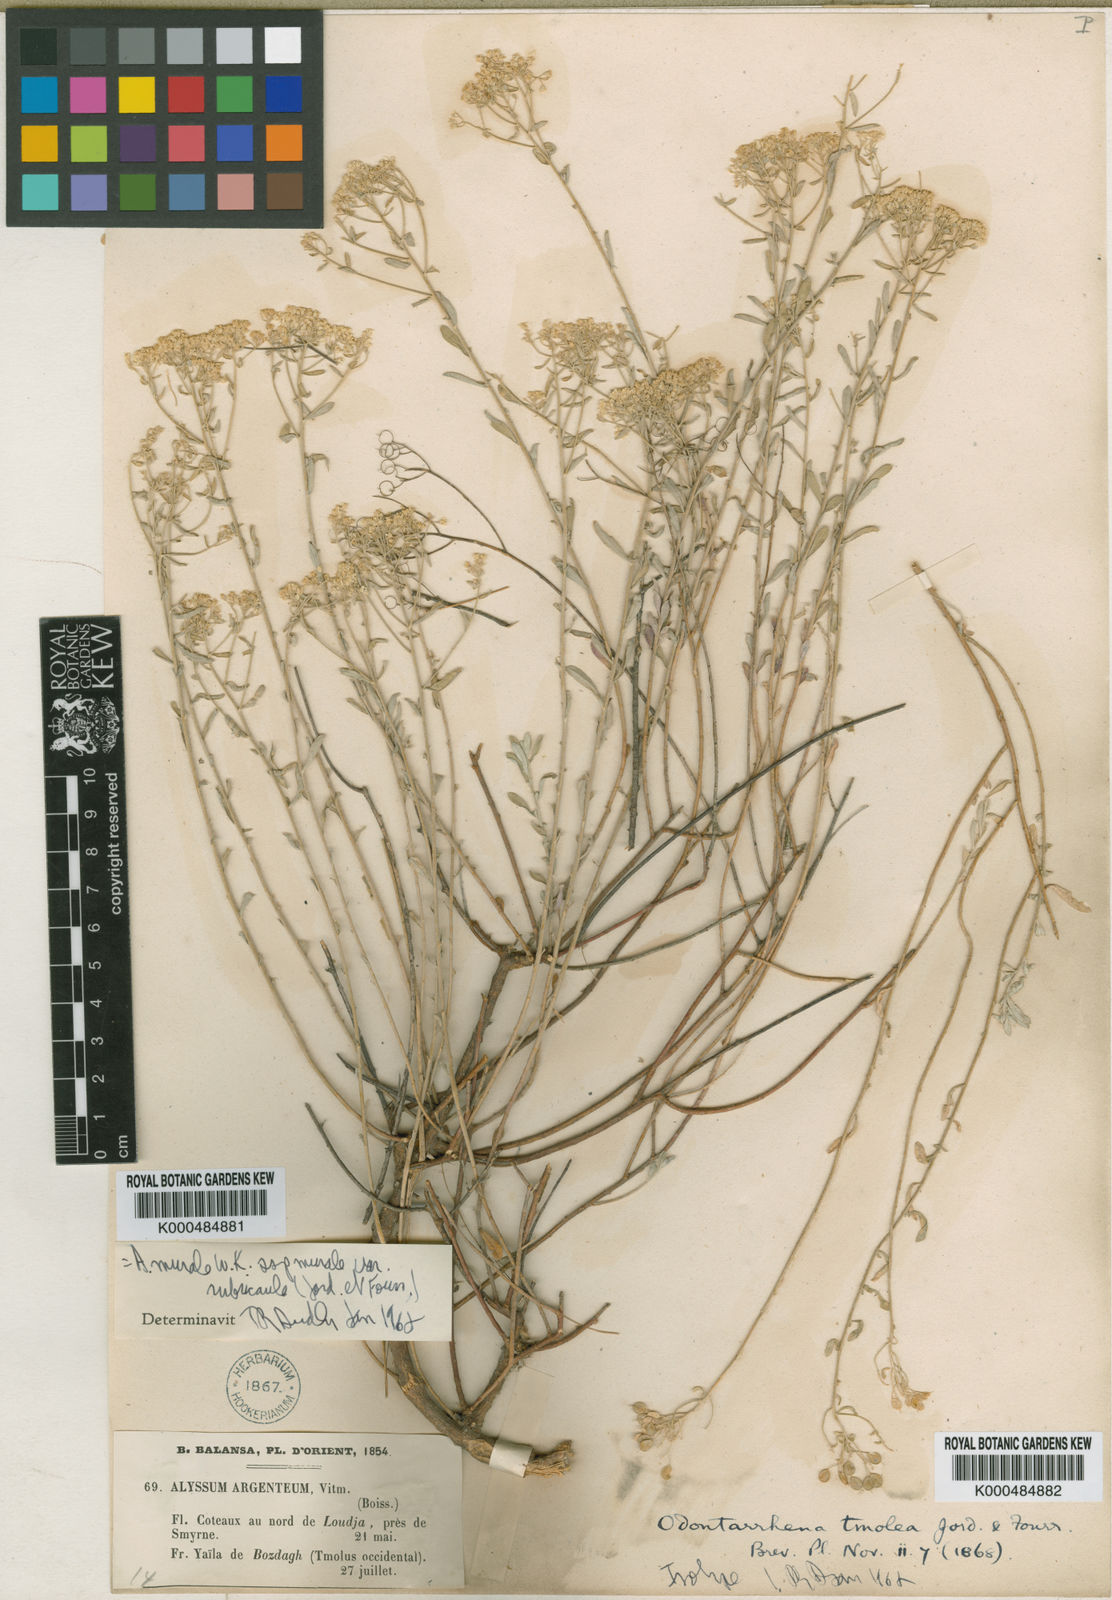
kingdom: Plantae
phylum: Tracheophyta
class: Magnoliopsida
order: Brassicales
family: Brassicaceae
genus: Odontarrhena
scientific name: Odontarrhena muralis
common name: Rock alyssum
